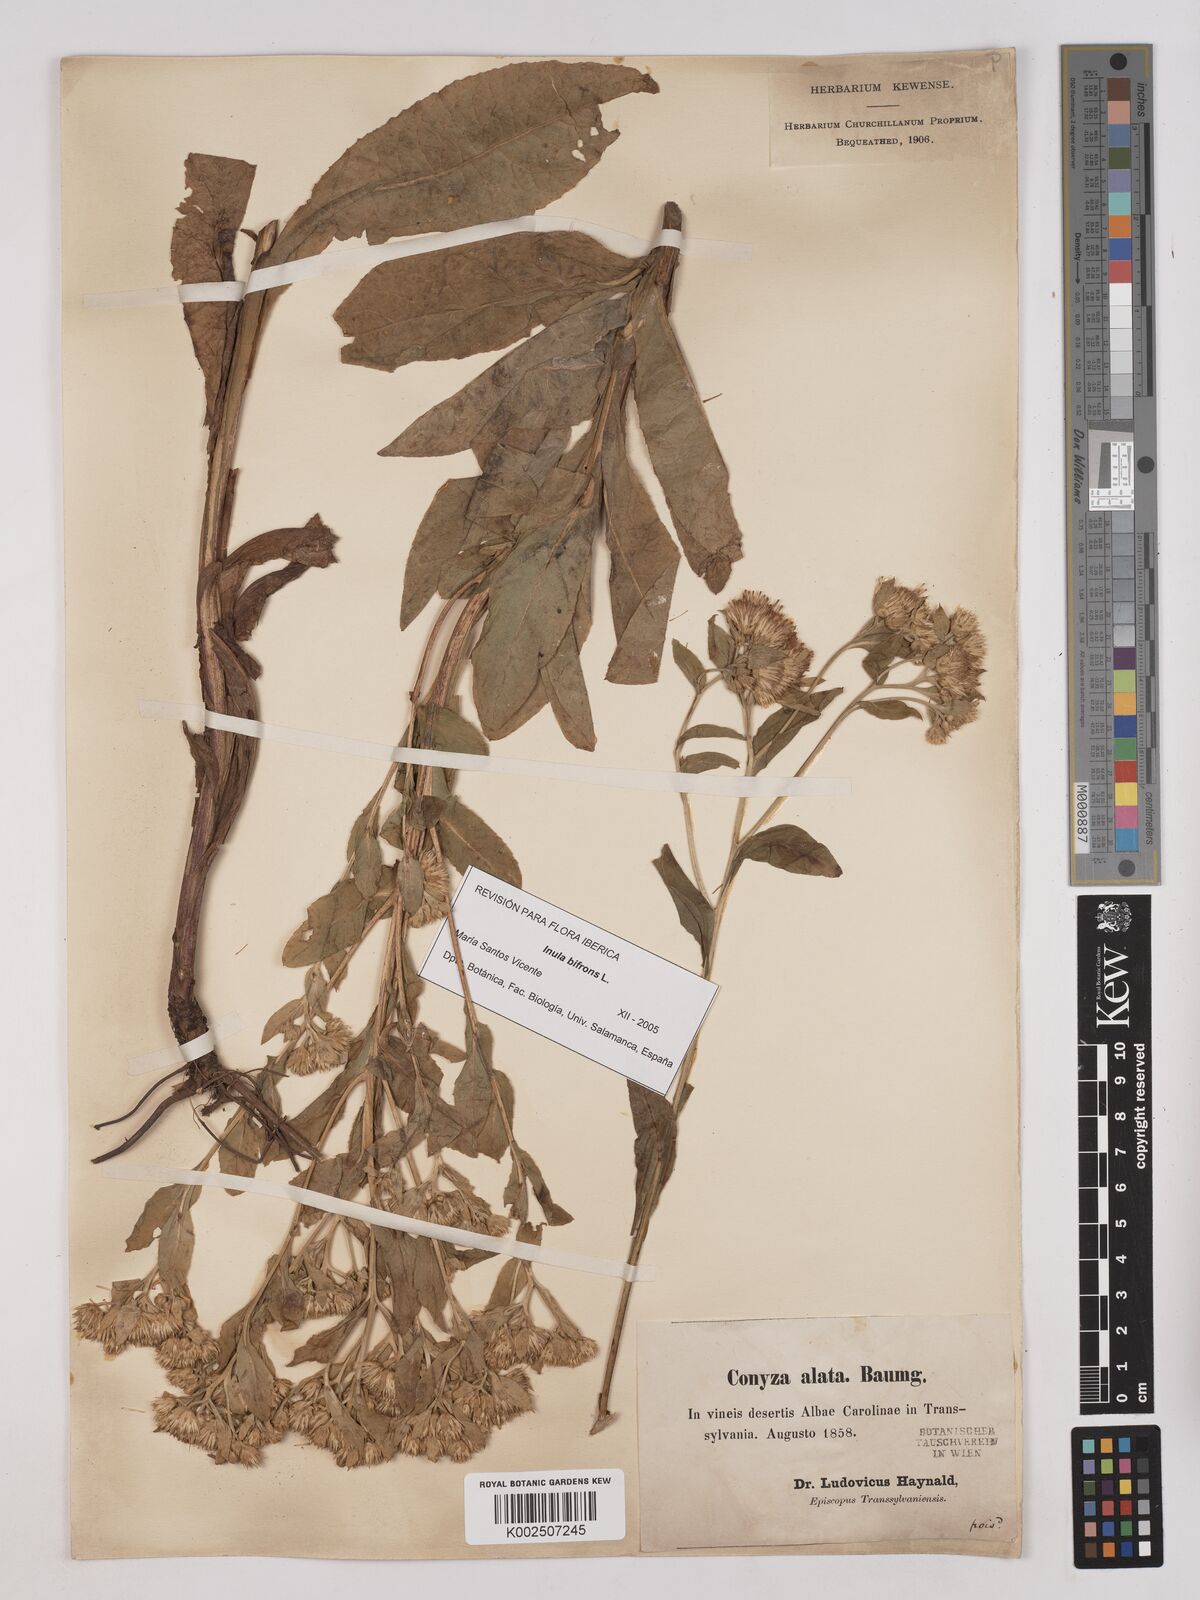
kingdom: Plantae
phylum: Tracheophyta
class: Magnoliopsida
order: Asterales
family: Asteraceae
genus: Pentanema
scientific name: Pentanema bifrons
